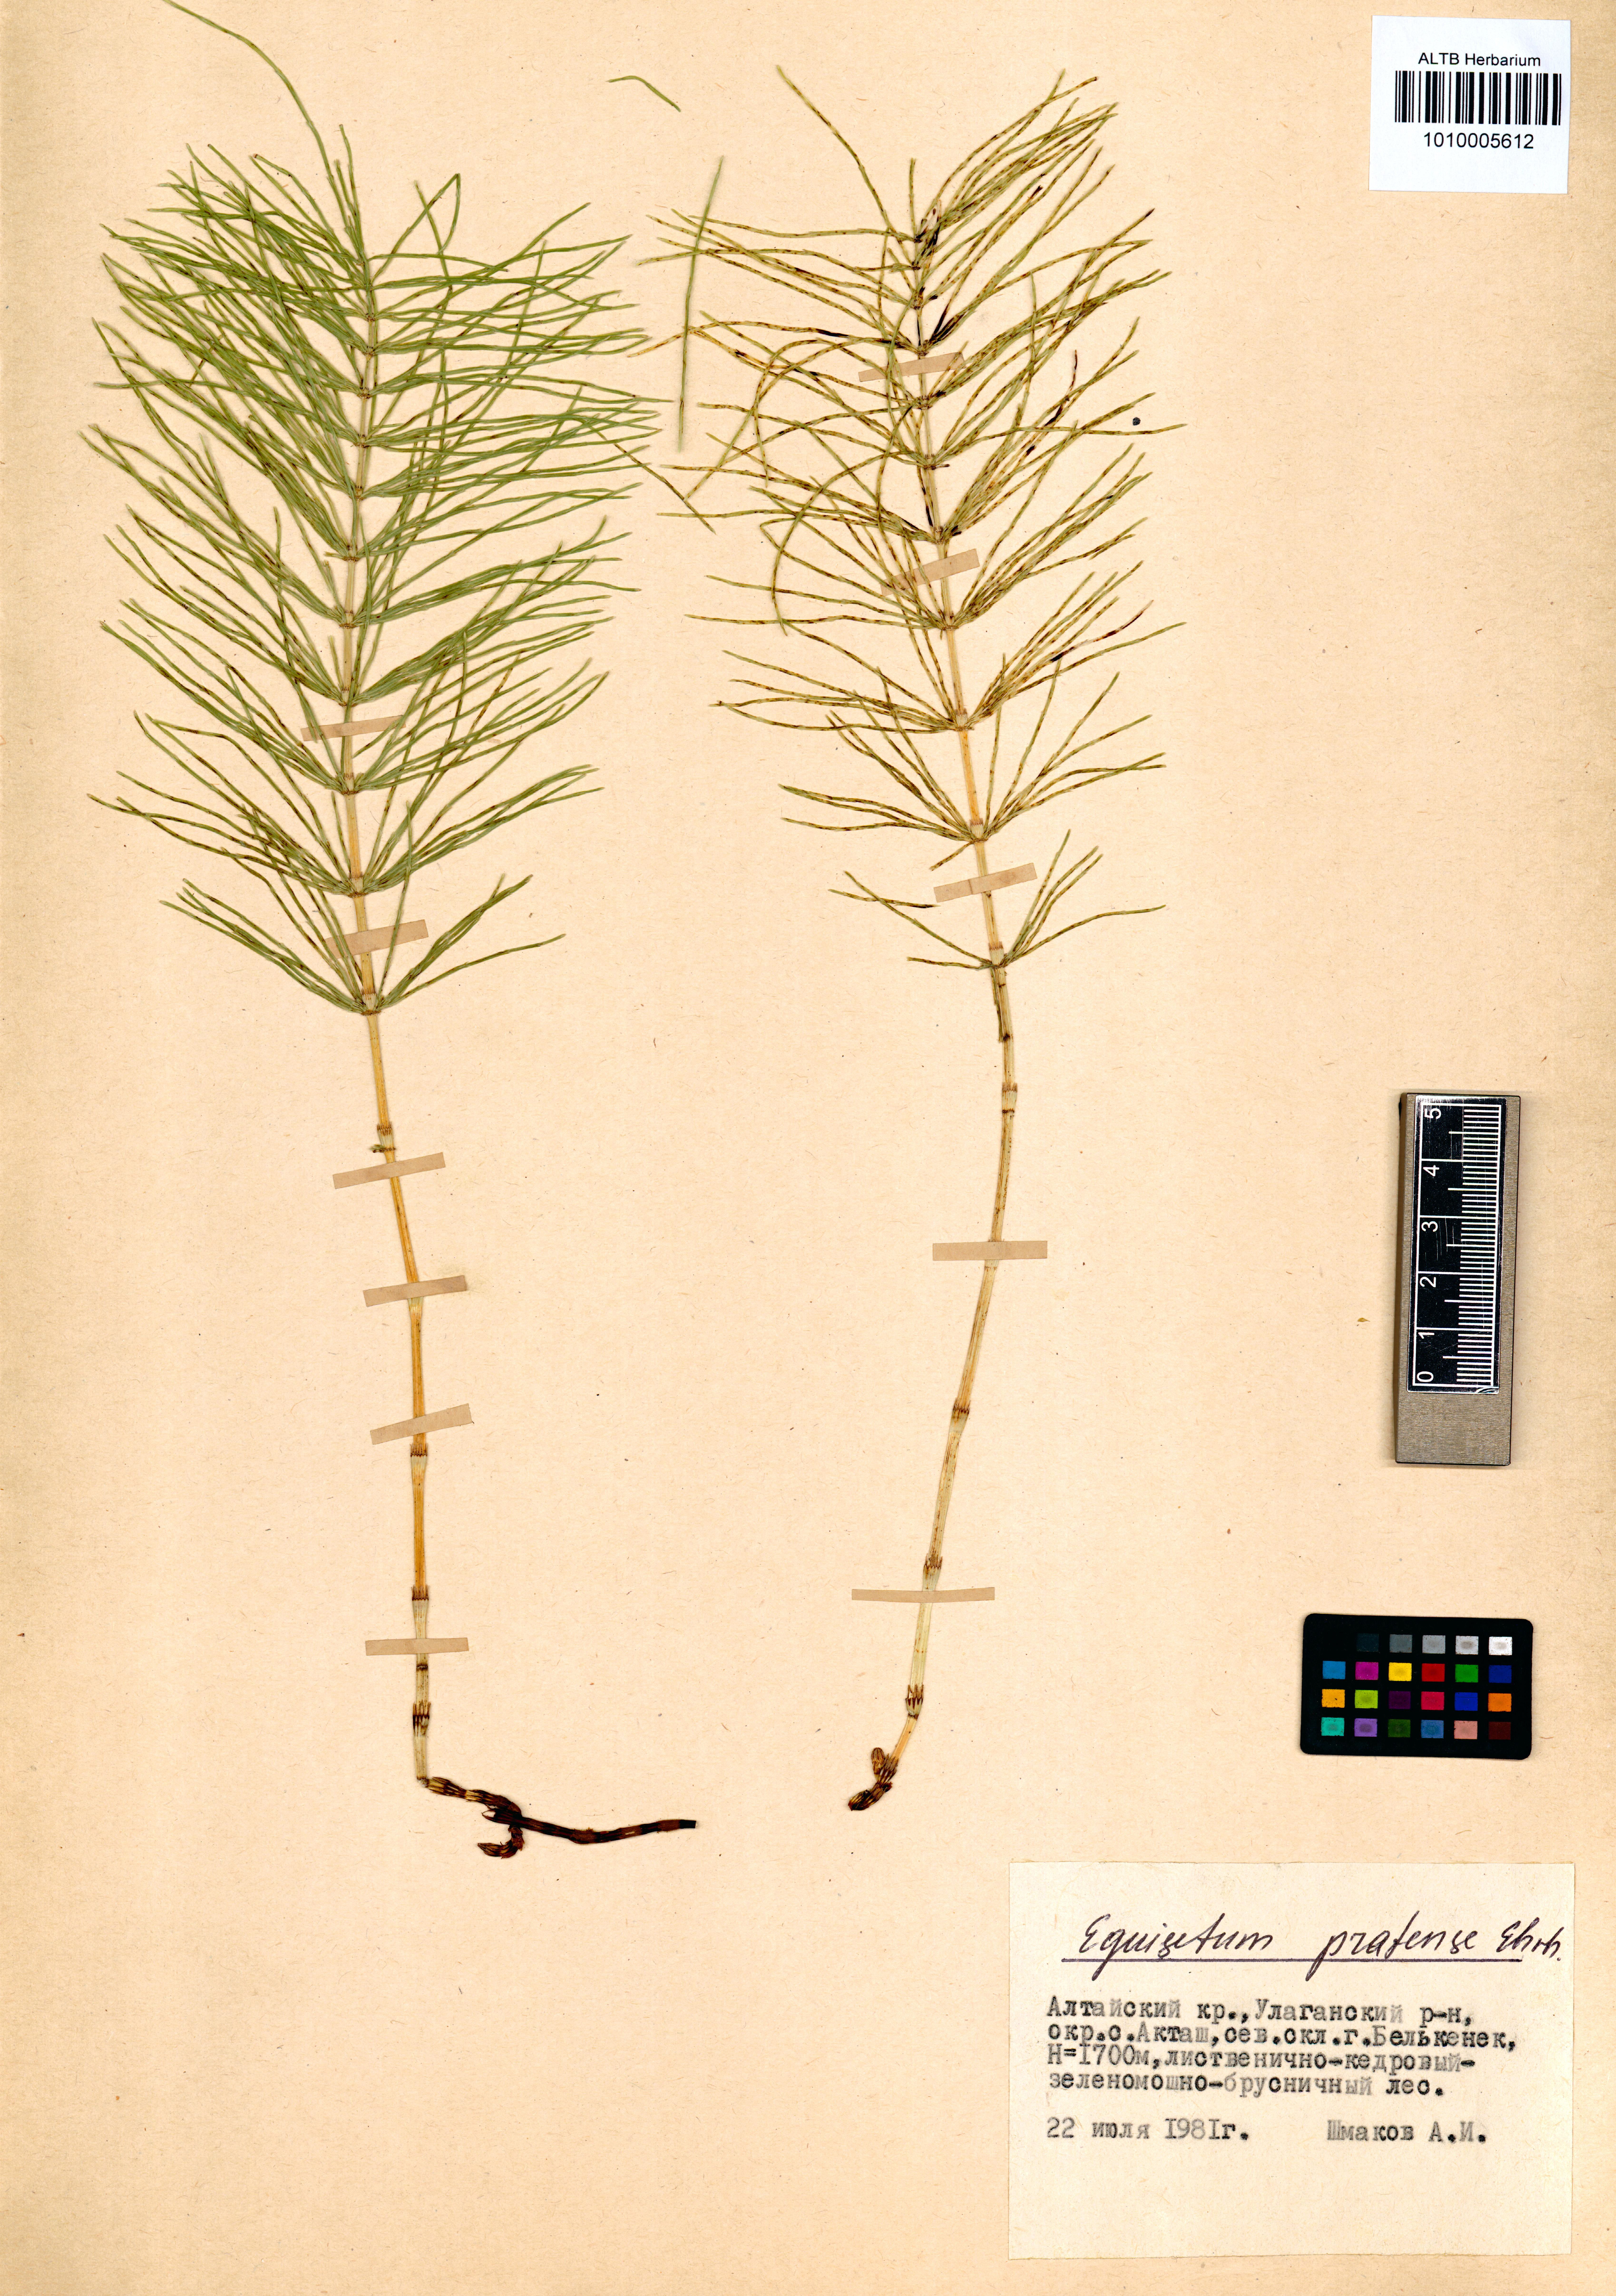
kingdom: Plantae
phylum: Tracheophyta
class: Polypodiopsida
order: Equisetales
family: Equisetaceae
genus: Equisetum
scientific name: Equisetum pratense
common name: Meadow horsetail
